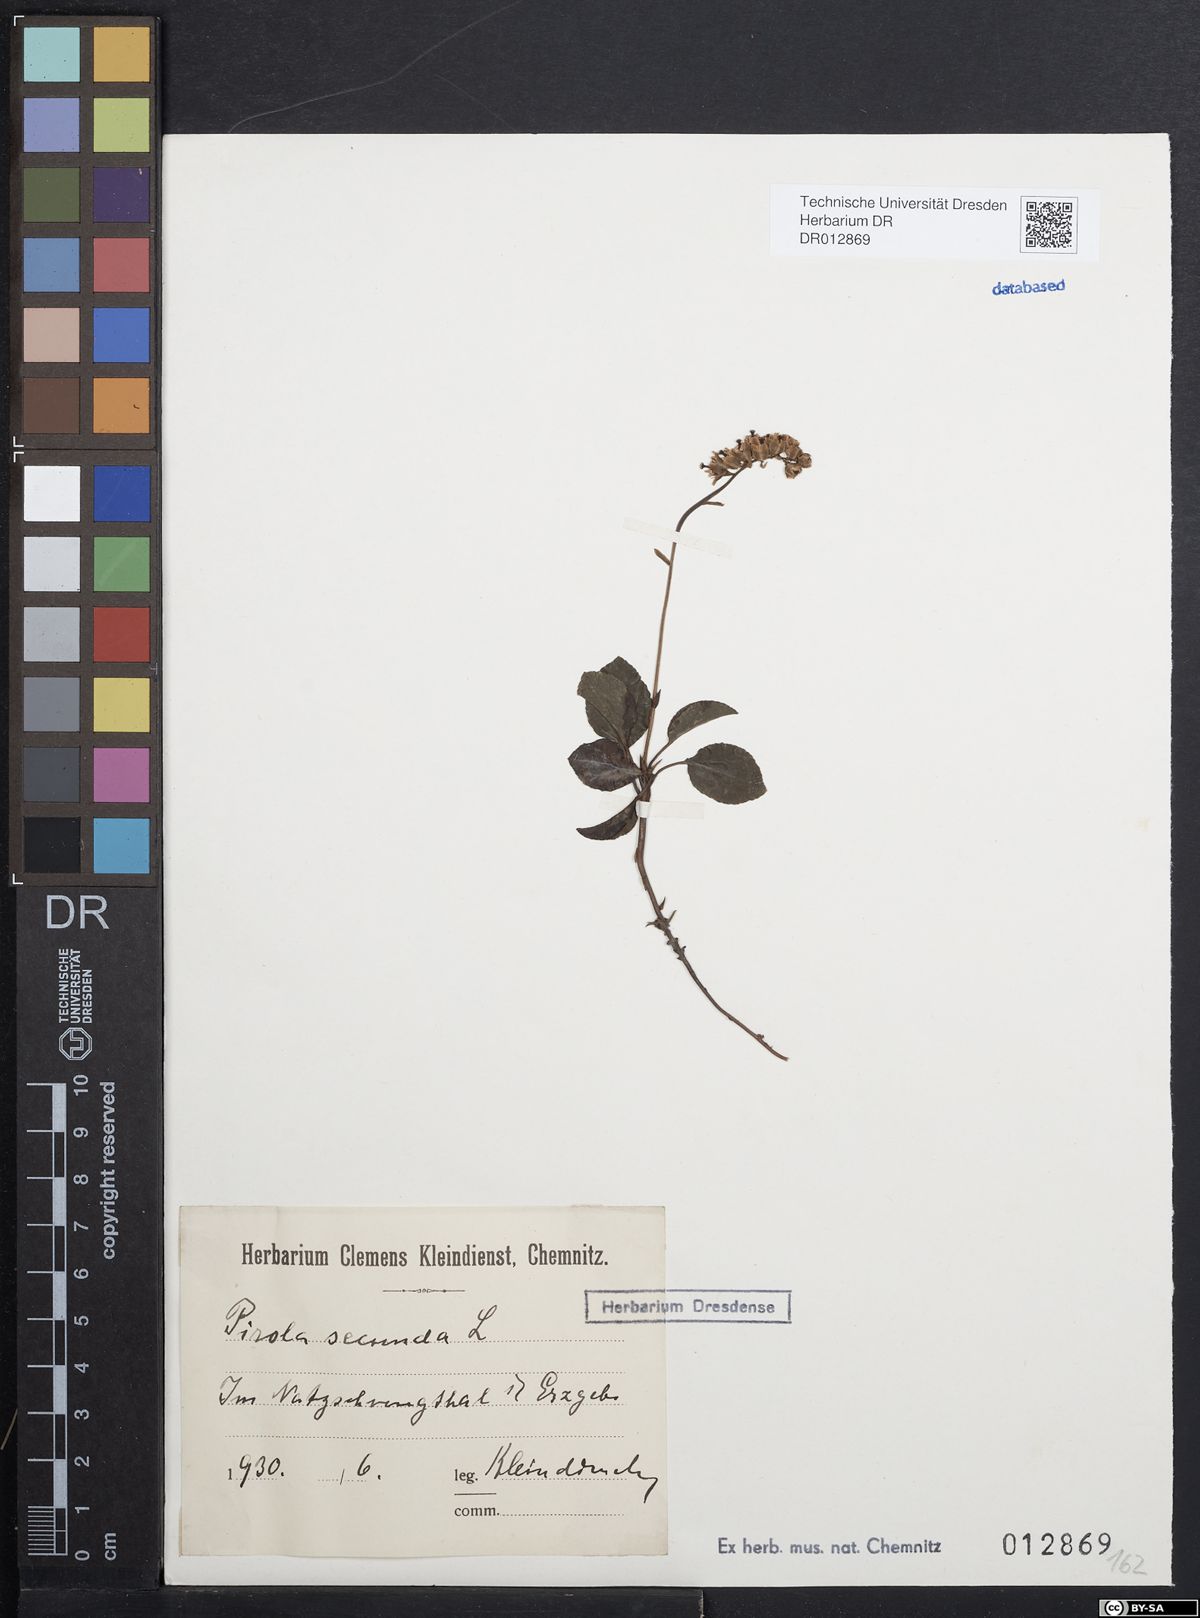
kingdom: Plantae
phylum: Tracheophyta
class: Magnoliopsida
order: Ericales
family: Ericaceae
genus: Orthilia
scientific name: Orthilia secunda
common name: One-sided orthilia
